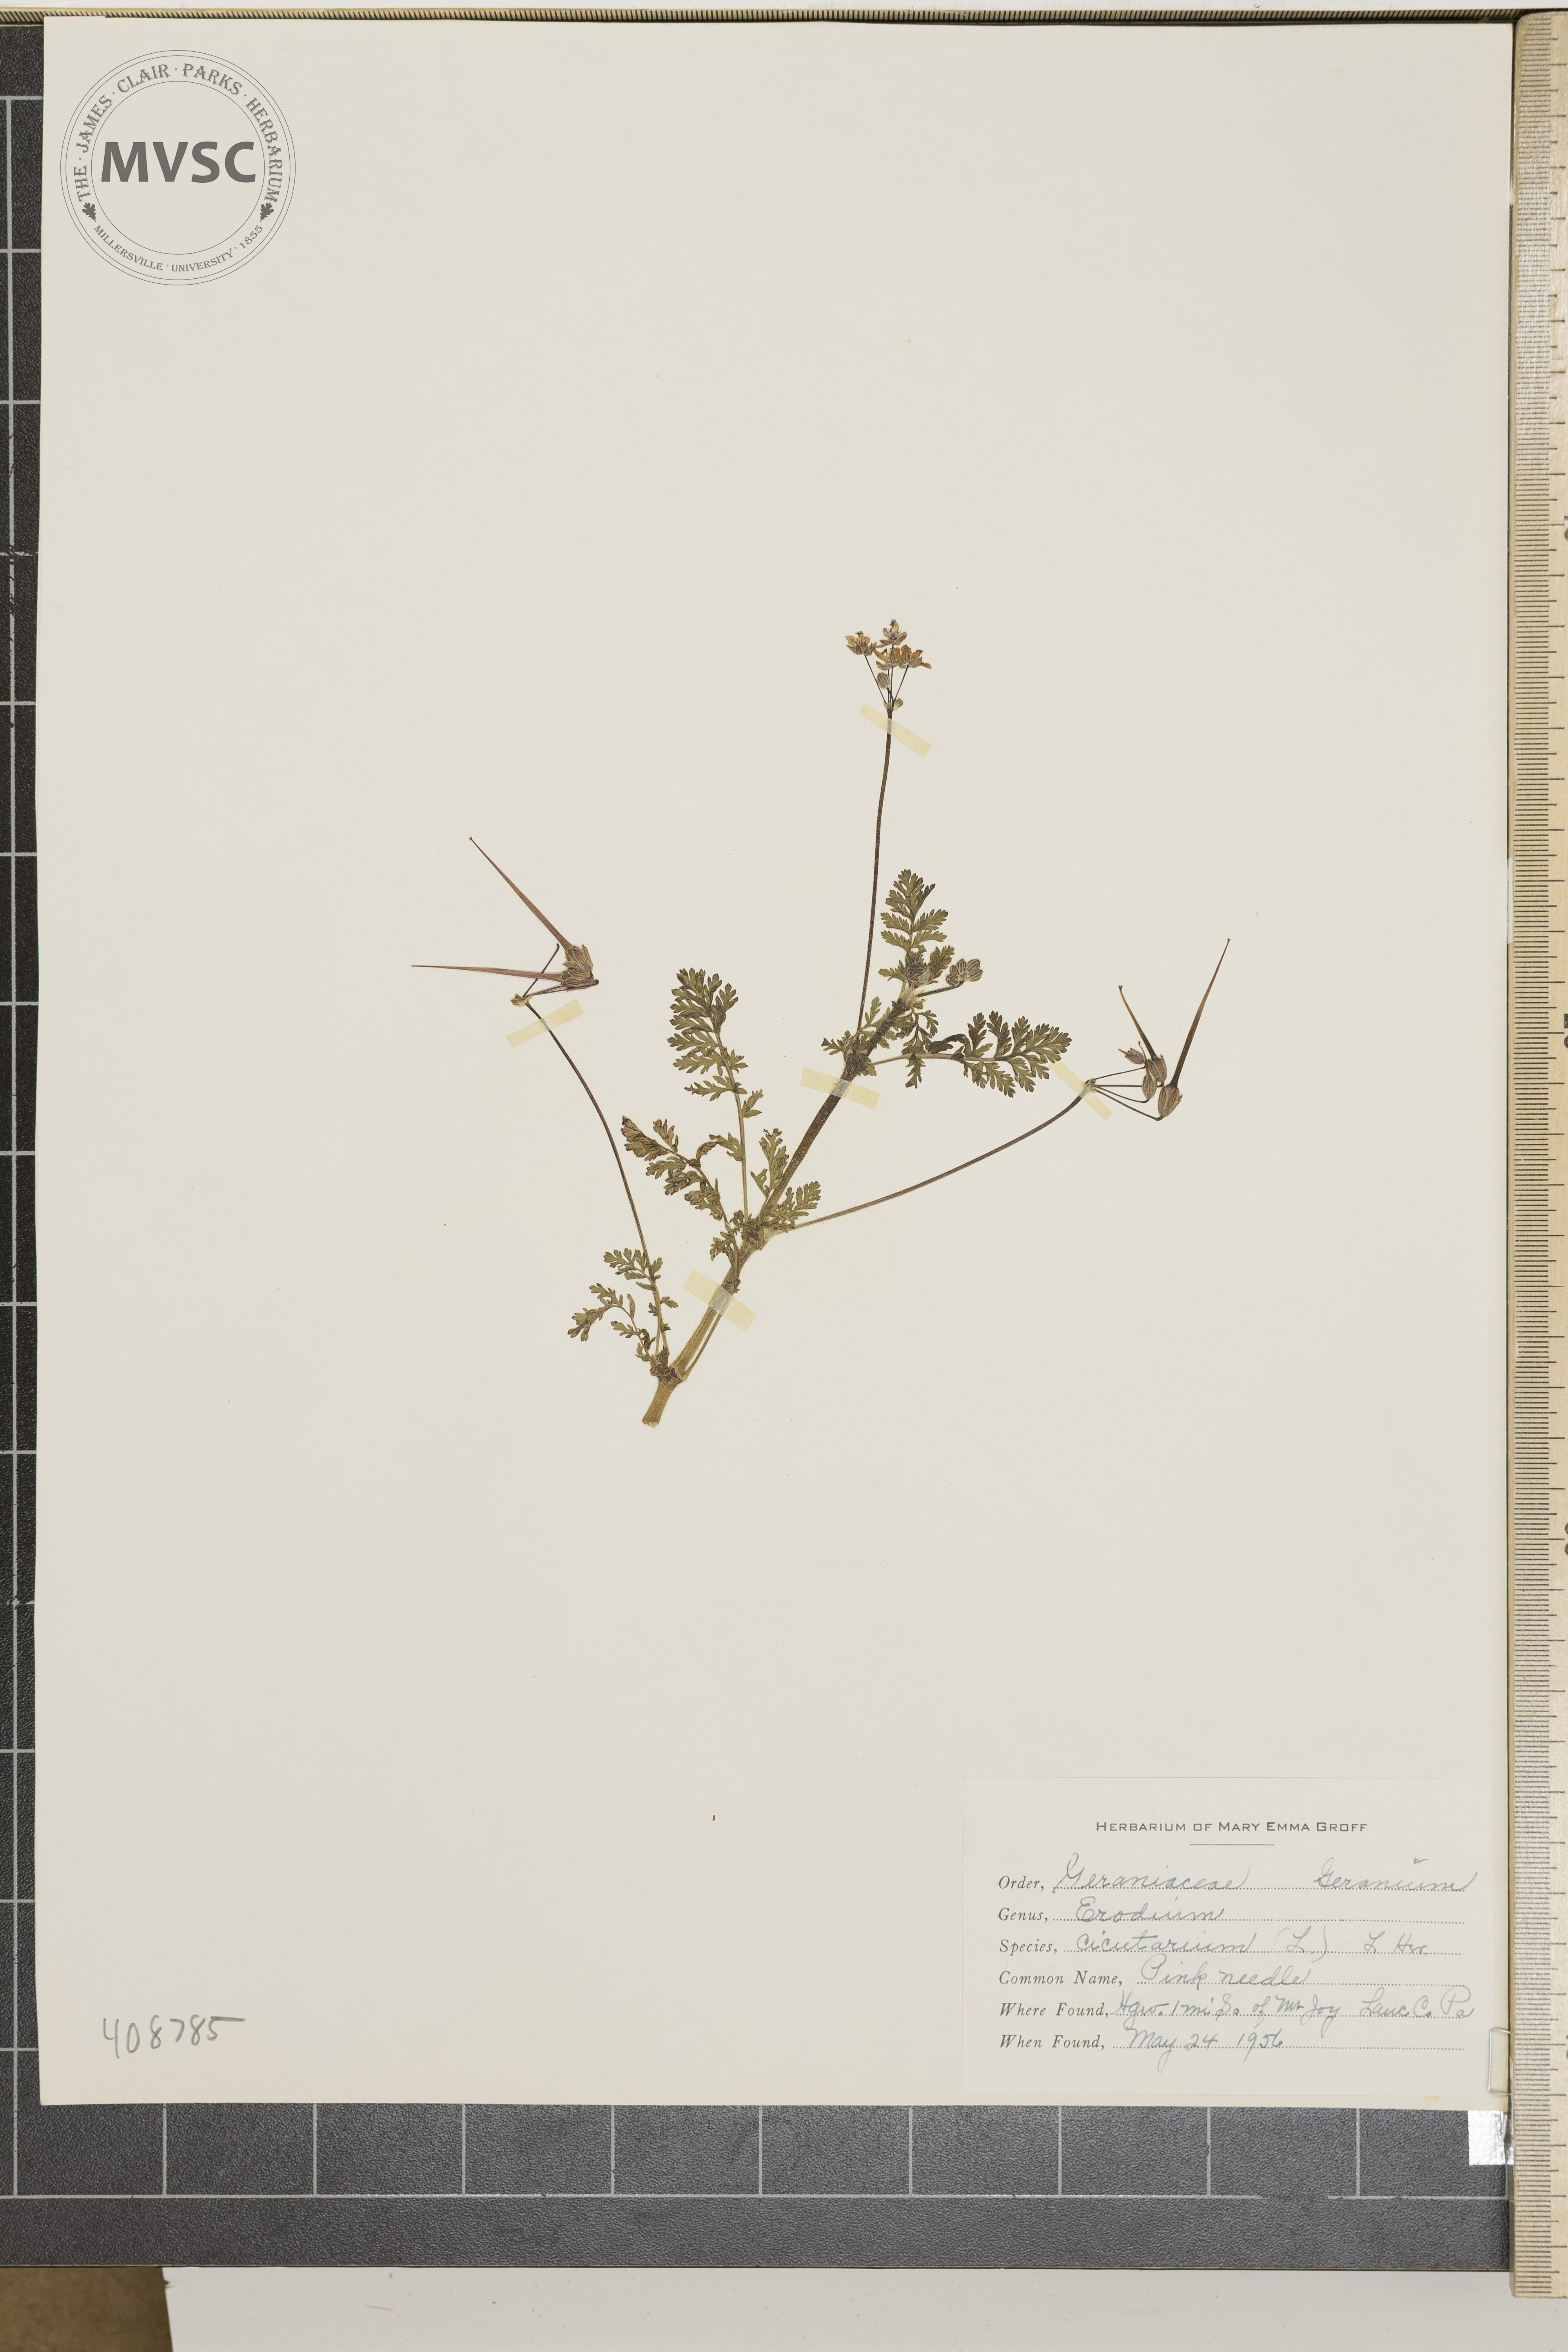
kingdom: Plantae
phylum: Tracheophyta
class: Magnoliopsida
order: Geraniales
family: Geraniaceae
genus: Erodium
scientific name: Erodium cicutarium
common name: Common stork's-bill
